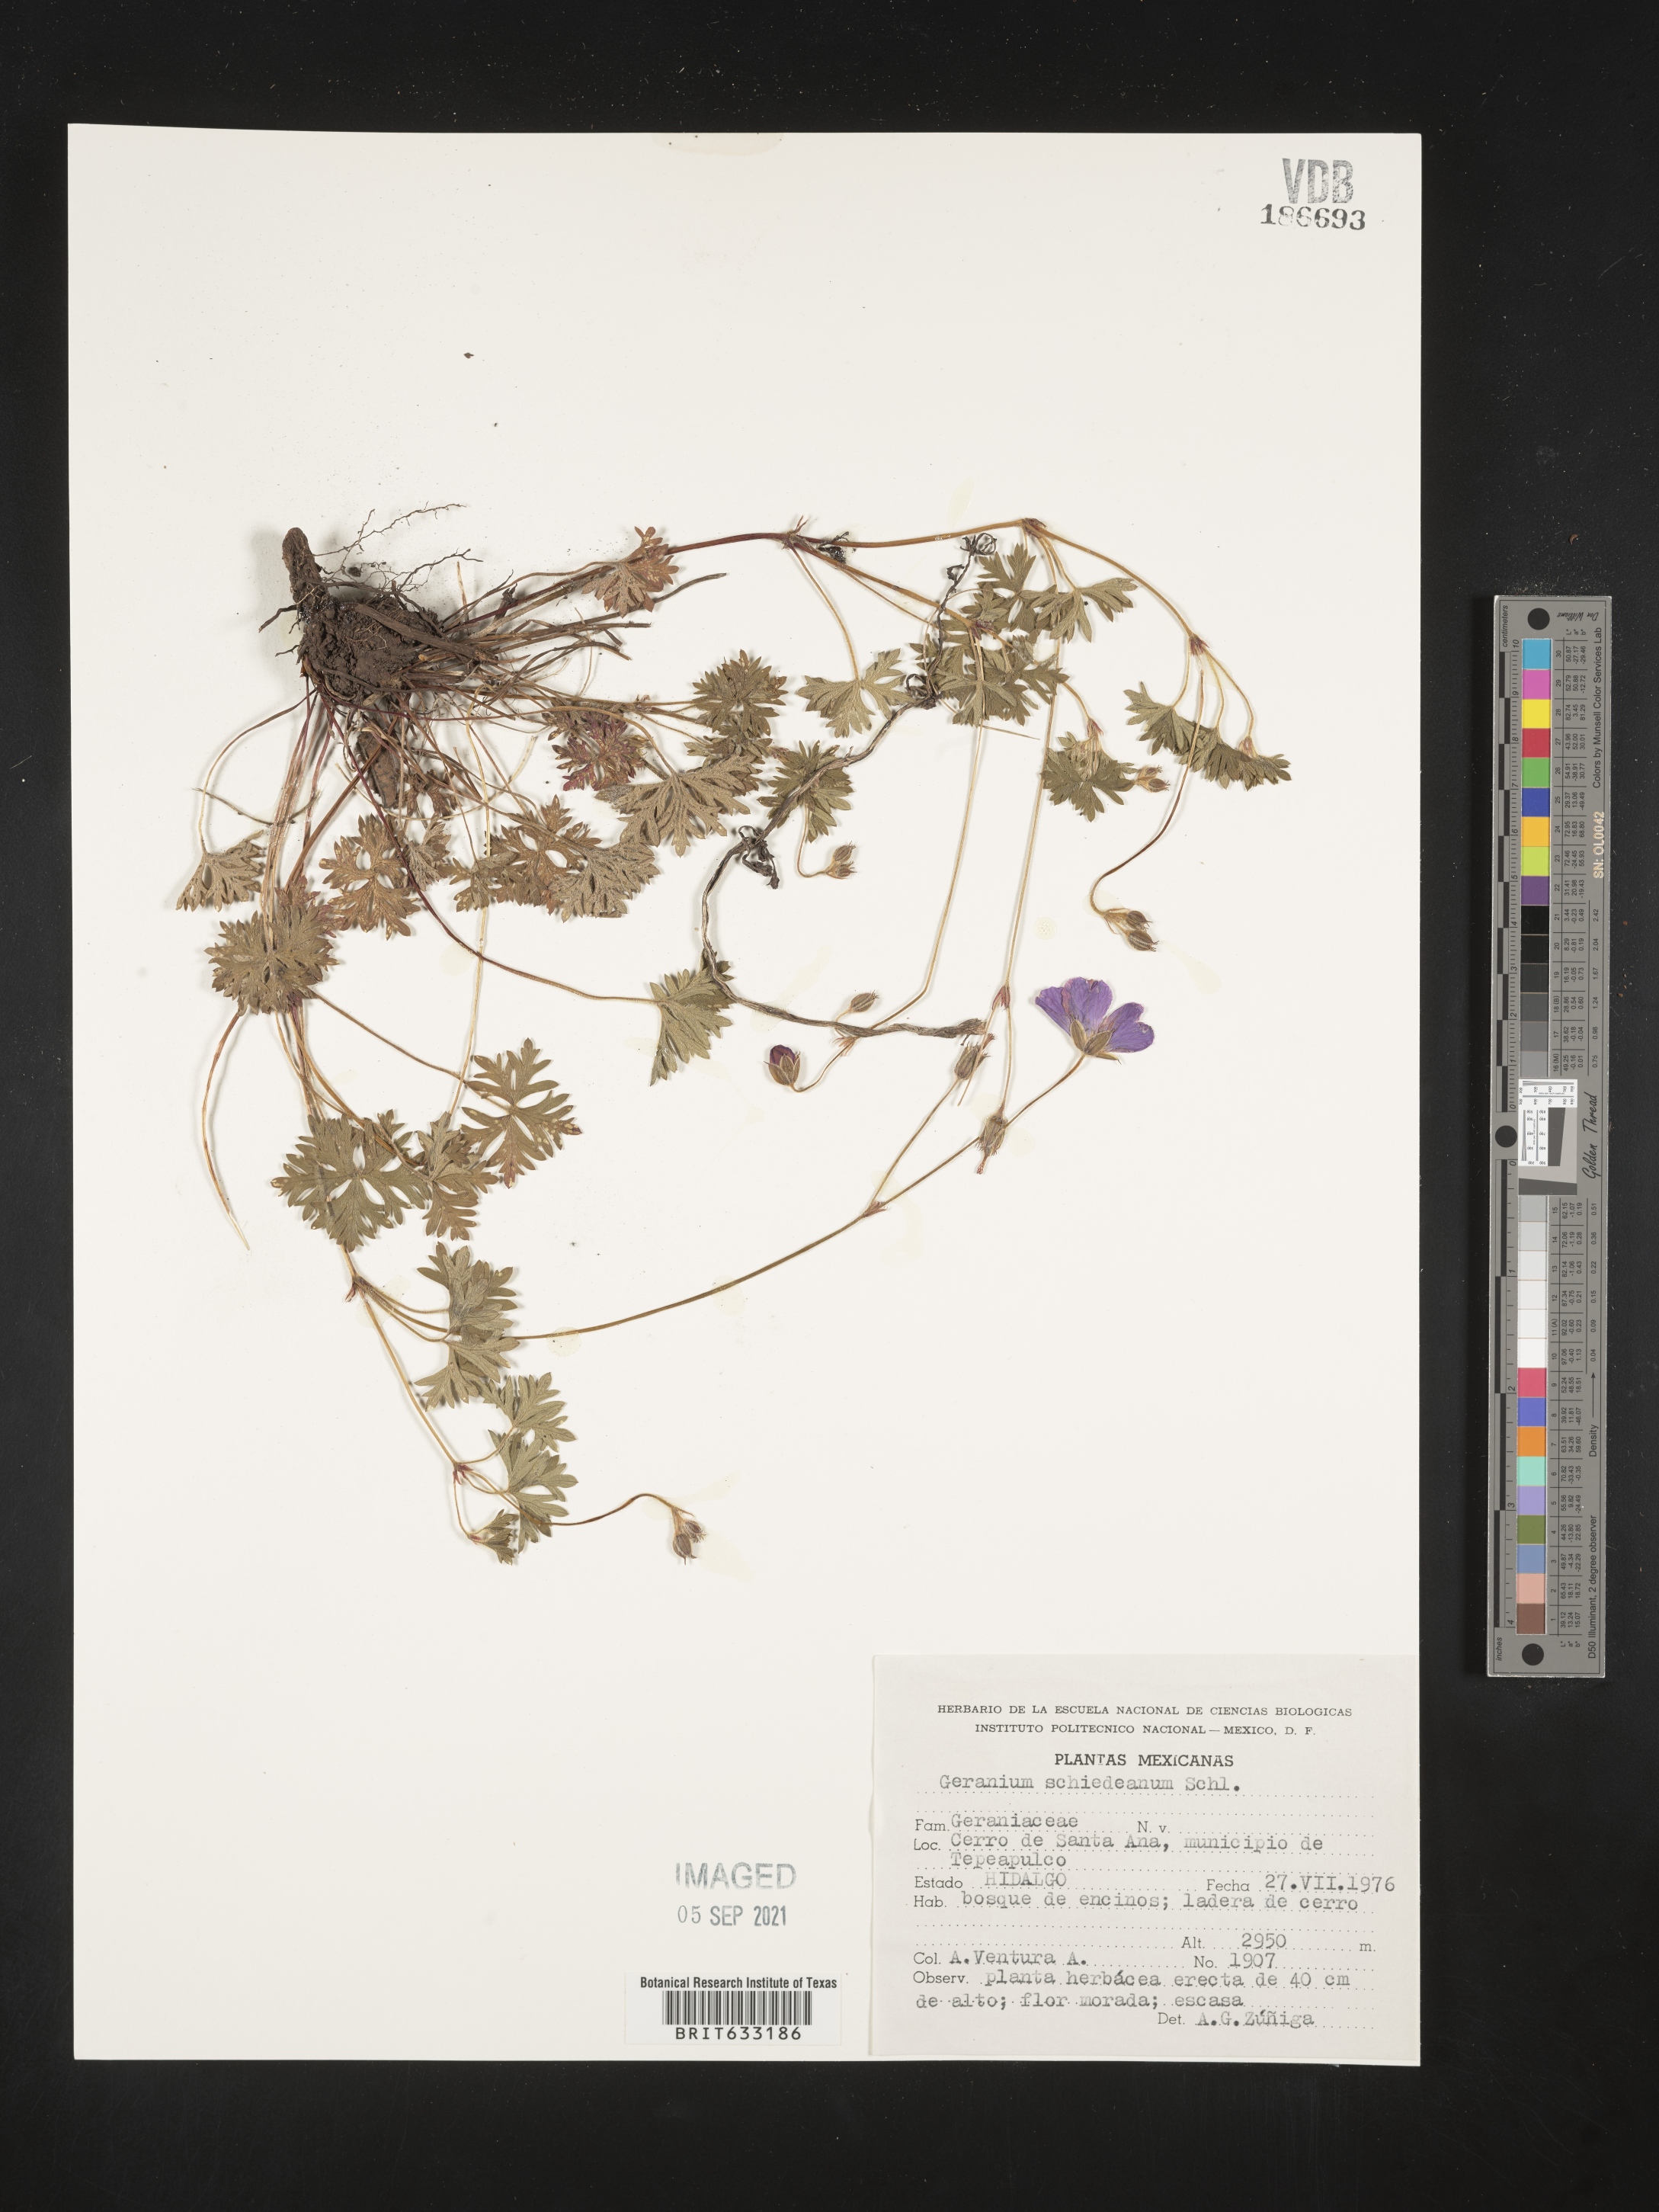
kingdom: Plantae
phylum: Tracheophyta
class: Magnoliopsida
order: Geraniales
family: Geraniaceae
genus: Geranium
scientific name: Geranium
